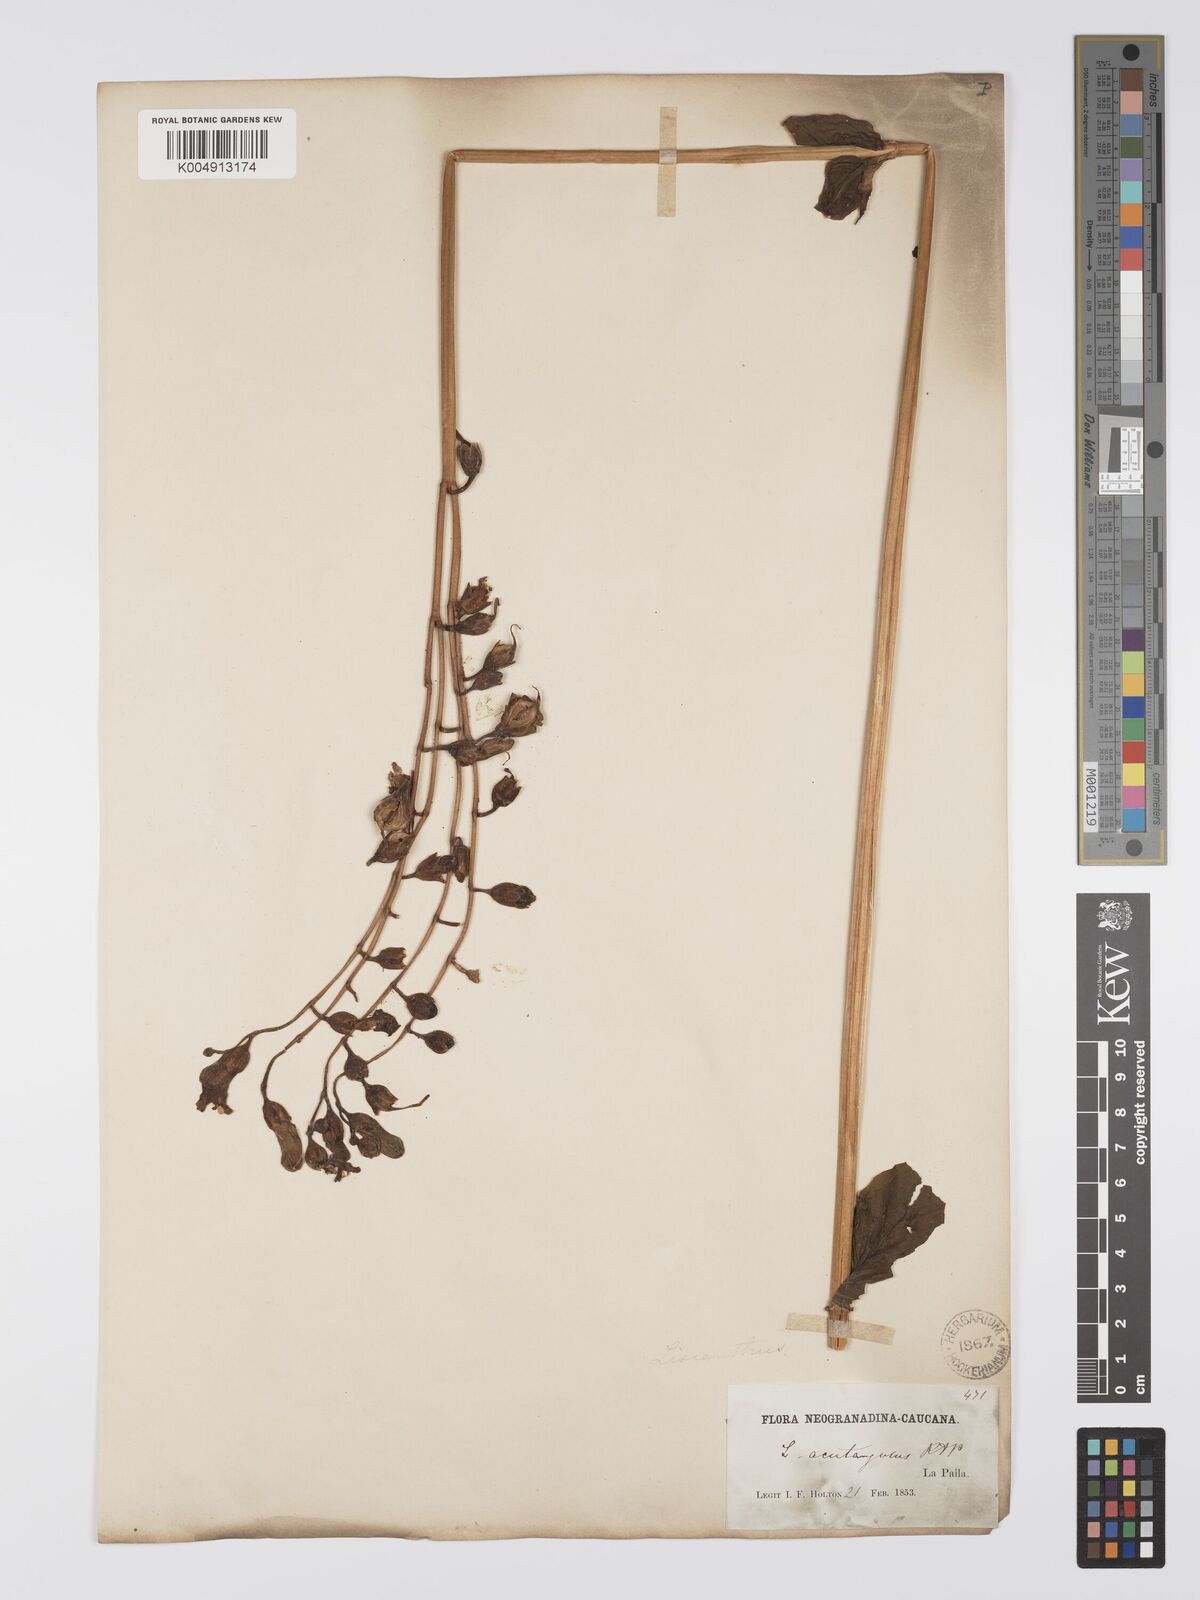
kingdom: Plantae
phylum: Tracheophyta
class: Magnoliopsida
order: Gentianales
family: Gentianaceae
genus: Chelonanthus
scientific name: Chelonanthus
